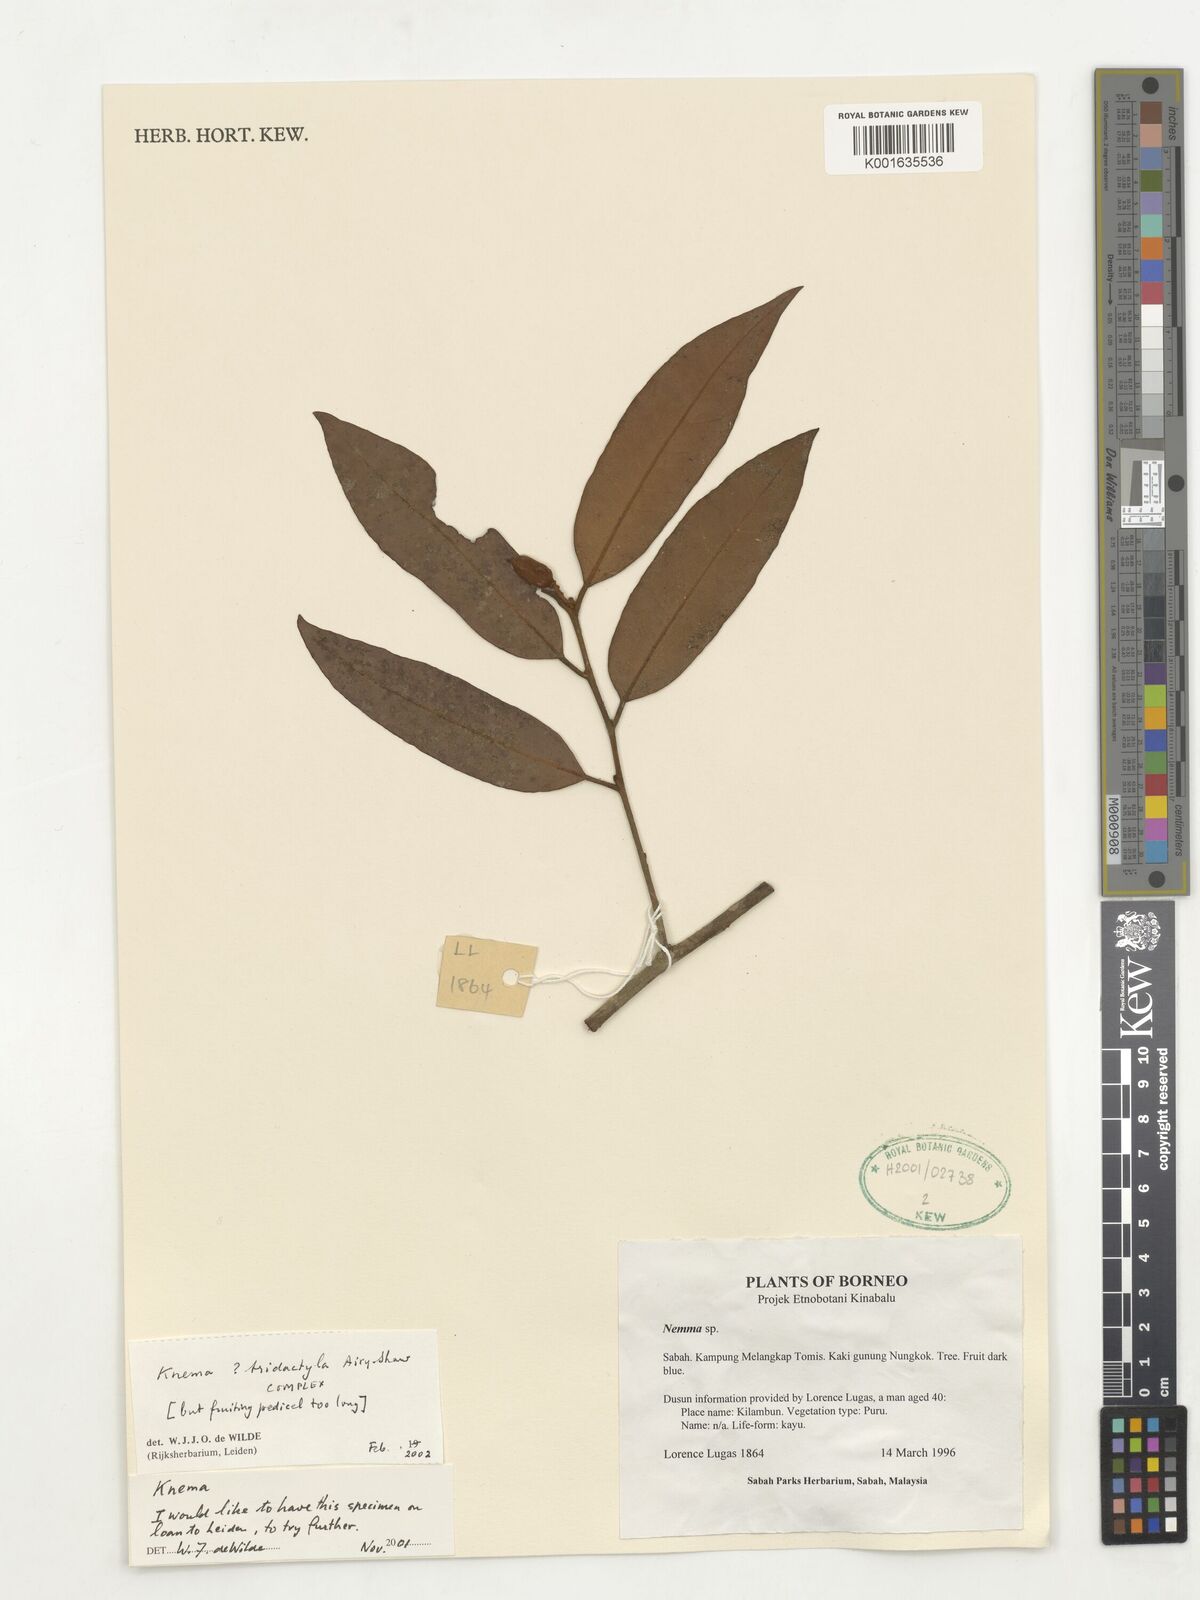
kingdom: Plantae
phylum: Tracheophyta
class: Magnoliopsida
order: Magnoliales
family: Myristicaceae
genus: Knema
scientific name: Knema tridactyla
